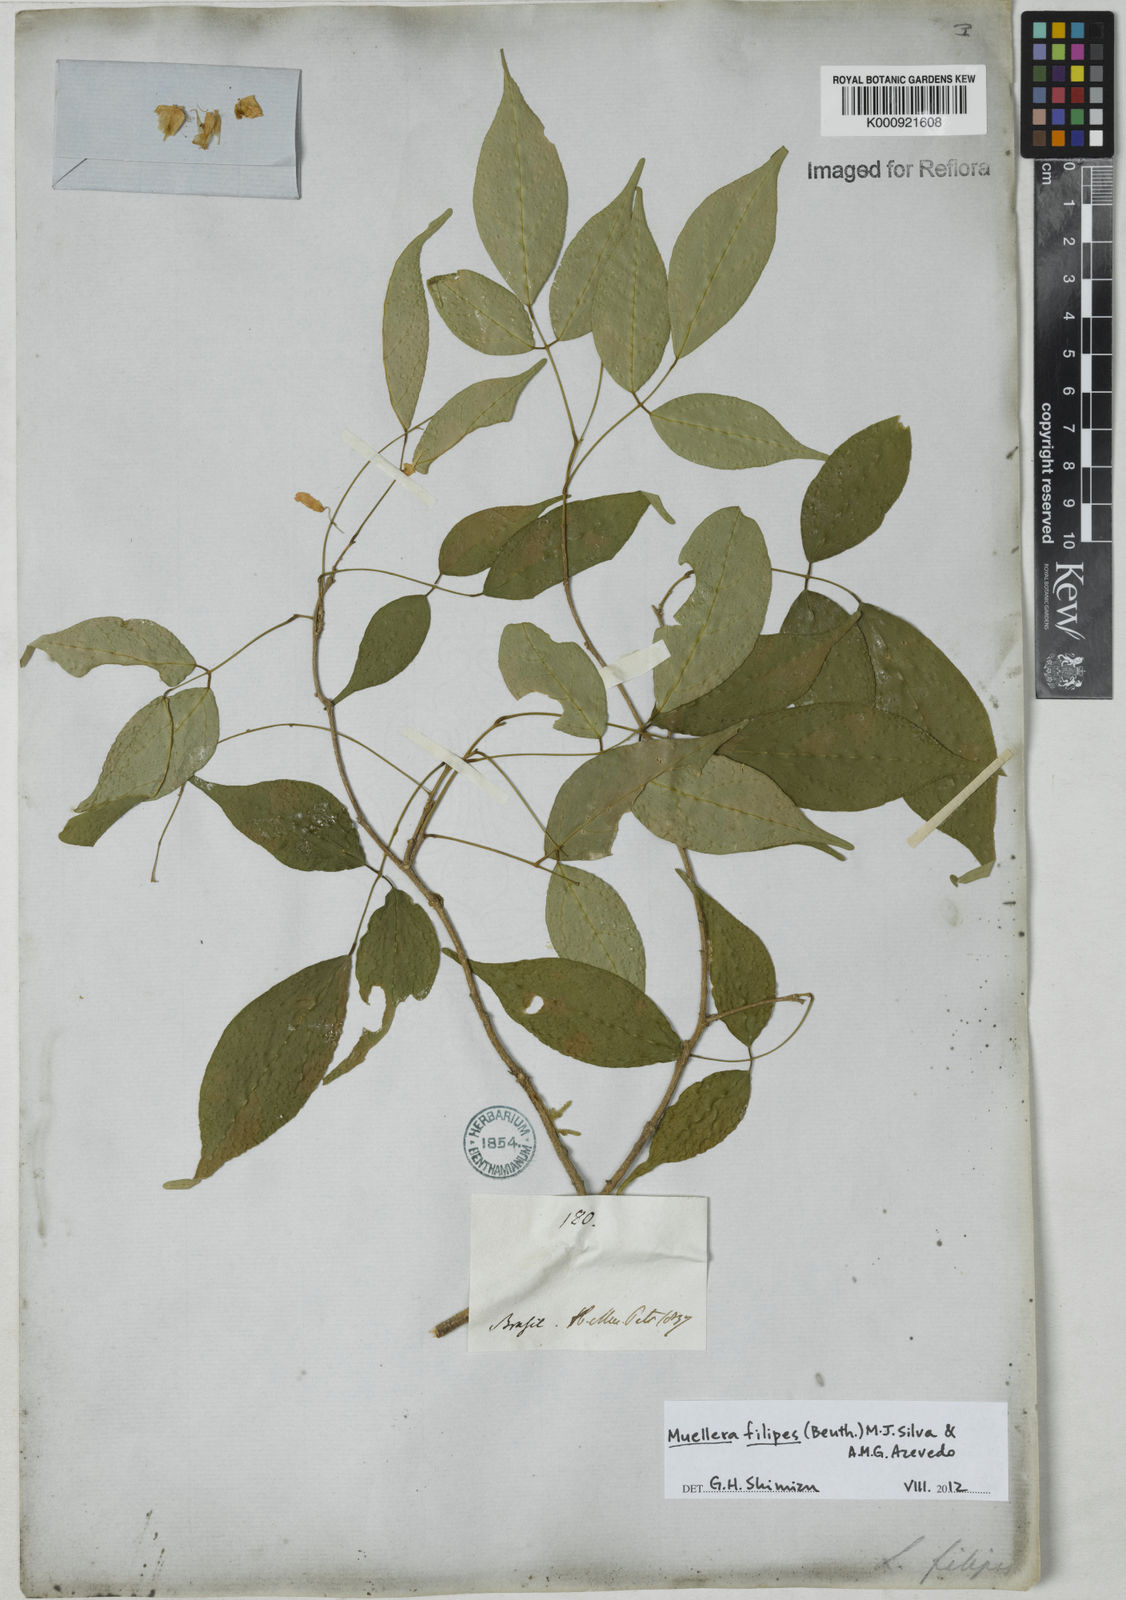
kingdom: Plantae
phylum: Tracheophyta
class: Magnoliopsida
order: Fabales
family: Fabaceae
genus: Muellera
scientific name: Muellera filipes
